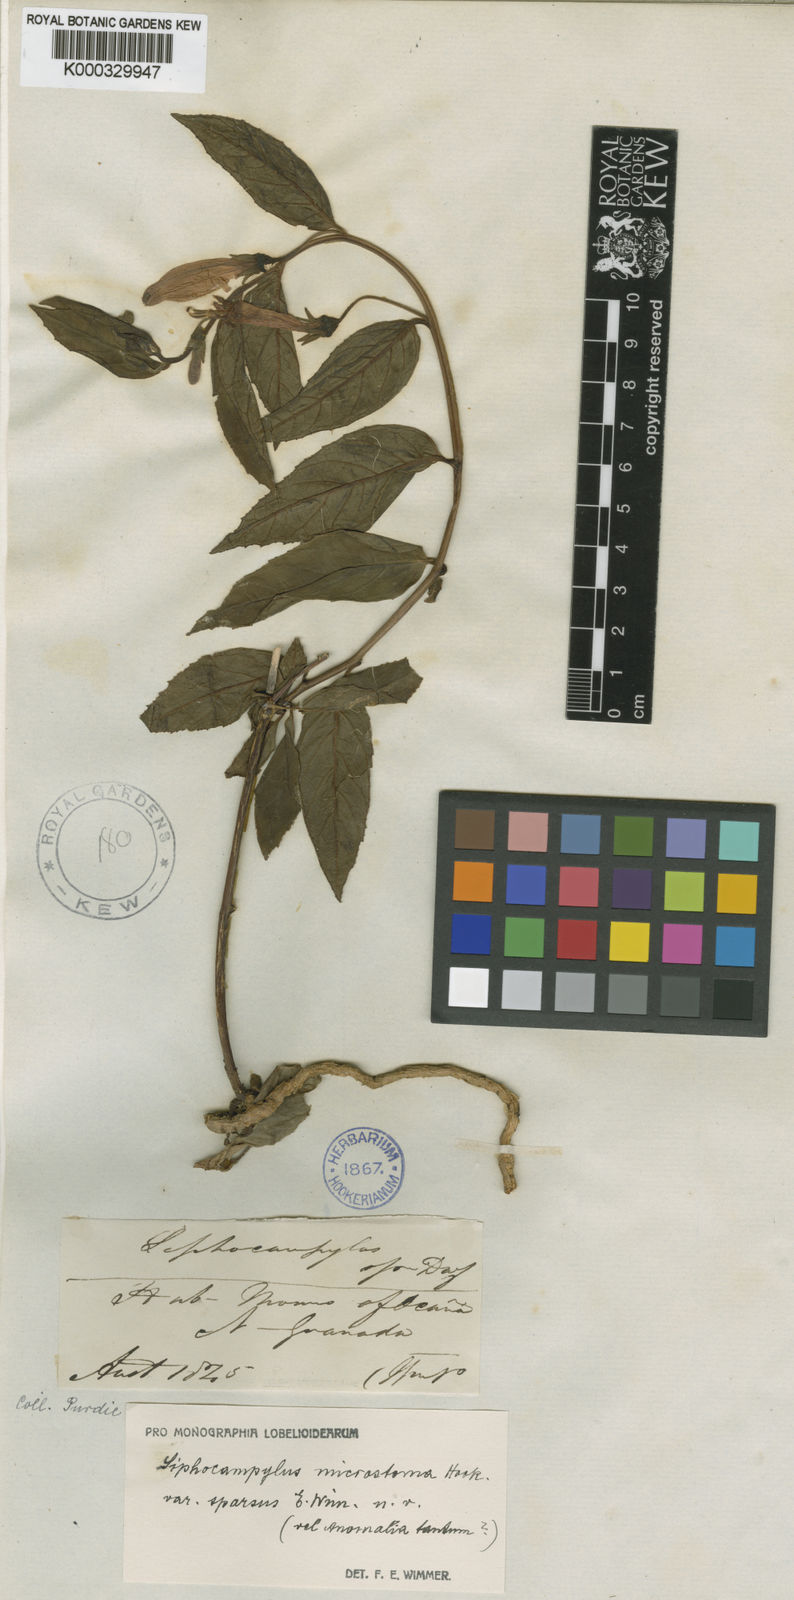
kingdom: Plantae
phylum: Tracheophyta
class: Magnoliopsida
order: Asterales
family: Campanulaceae
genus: Siphocampylus
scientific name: Siphocampylus microstoma
